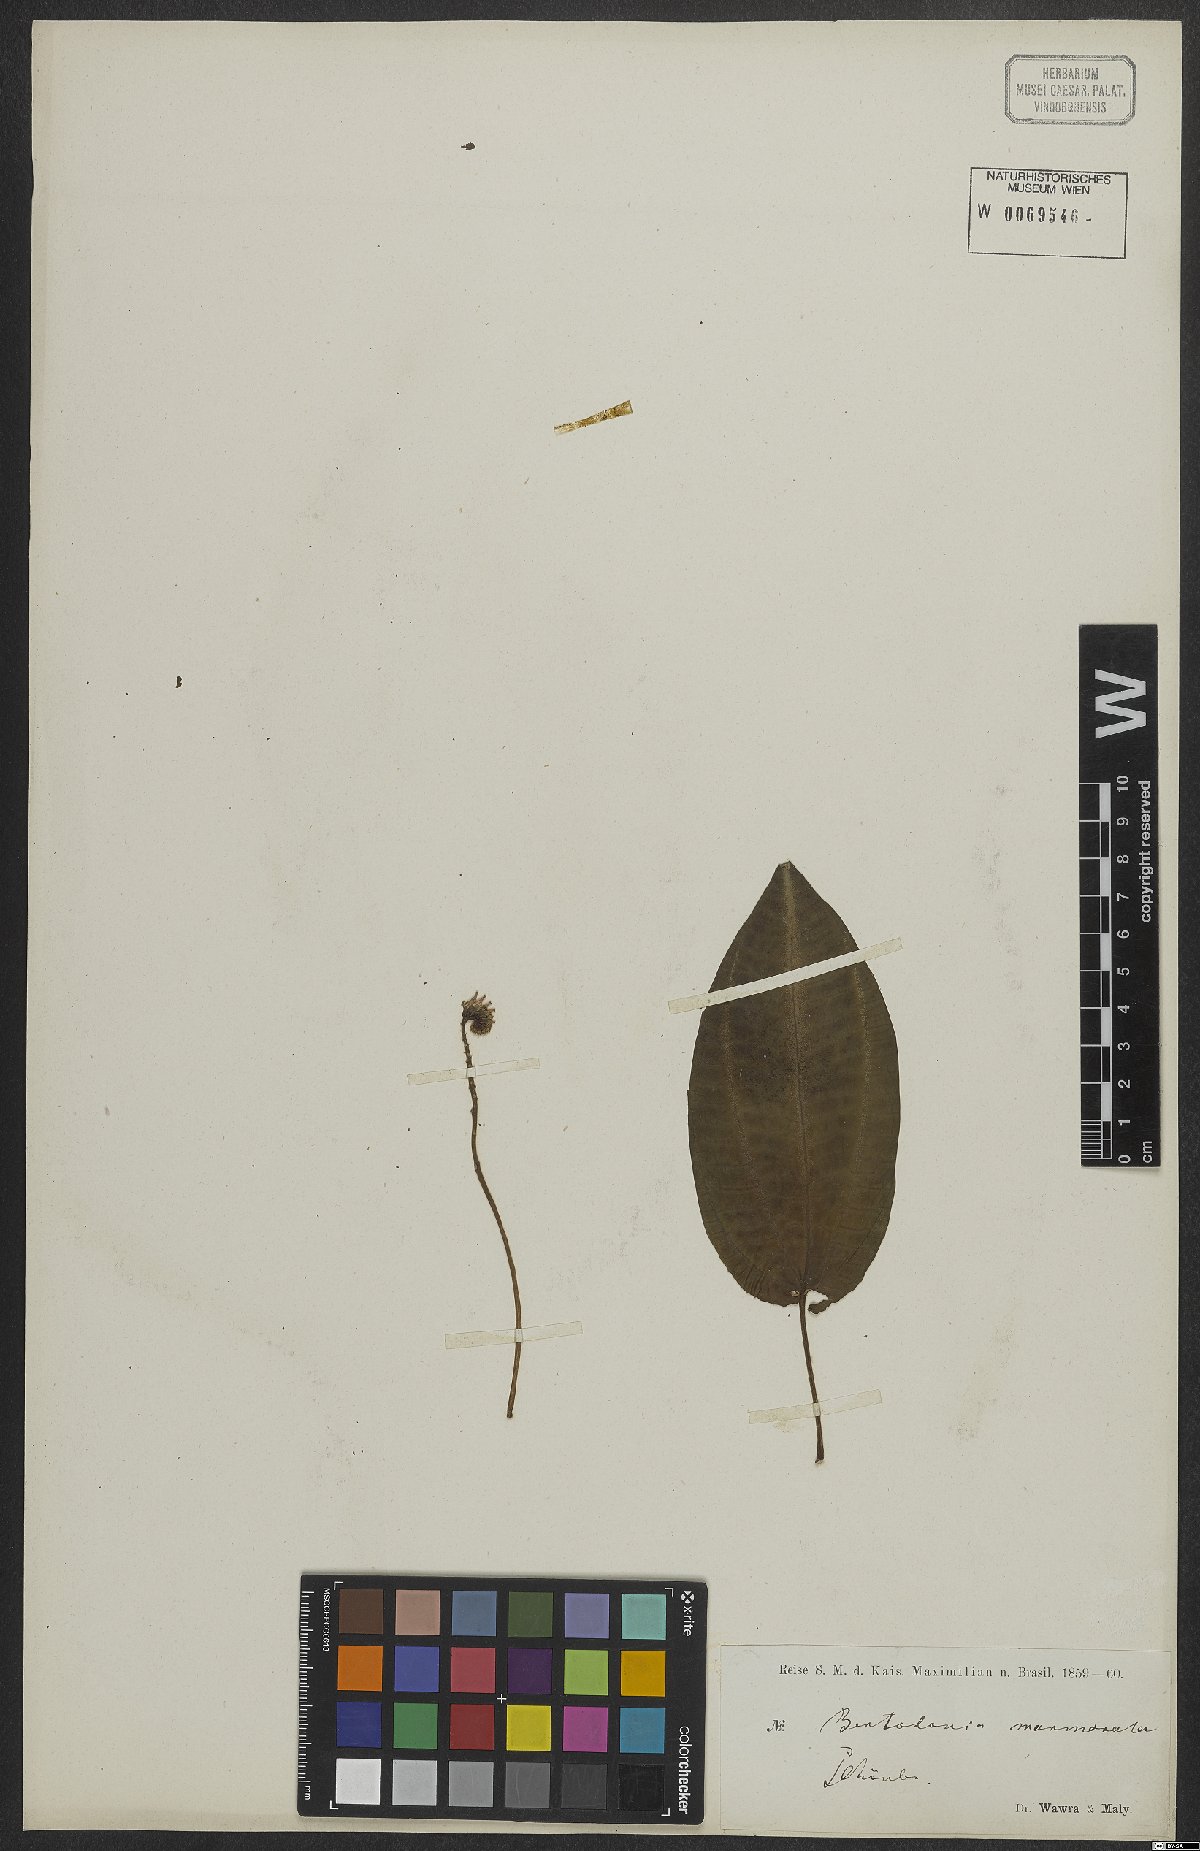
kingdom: Plantae
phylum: Tracheophyta
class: Magnoliopsida
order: Myrtales
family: Melastomataceae
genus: Bertolonia
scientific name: Bertolonia marmorata
